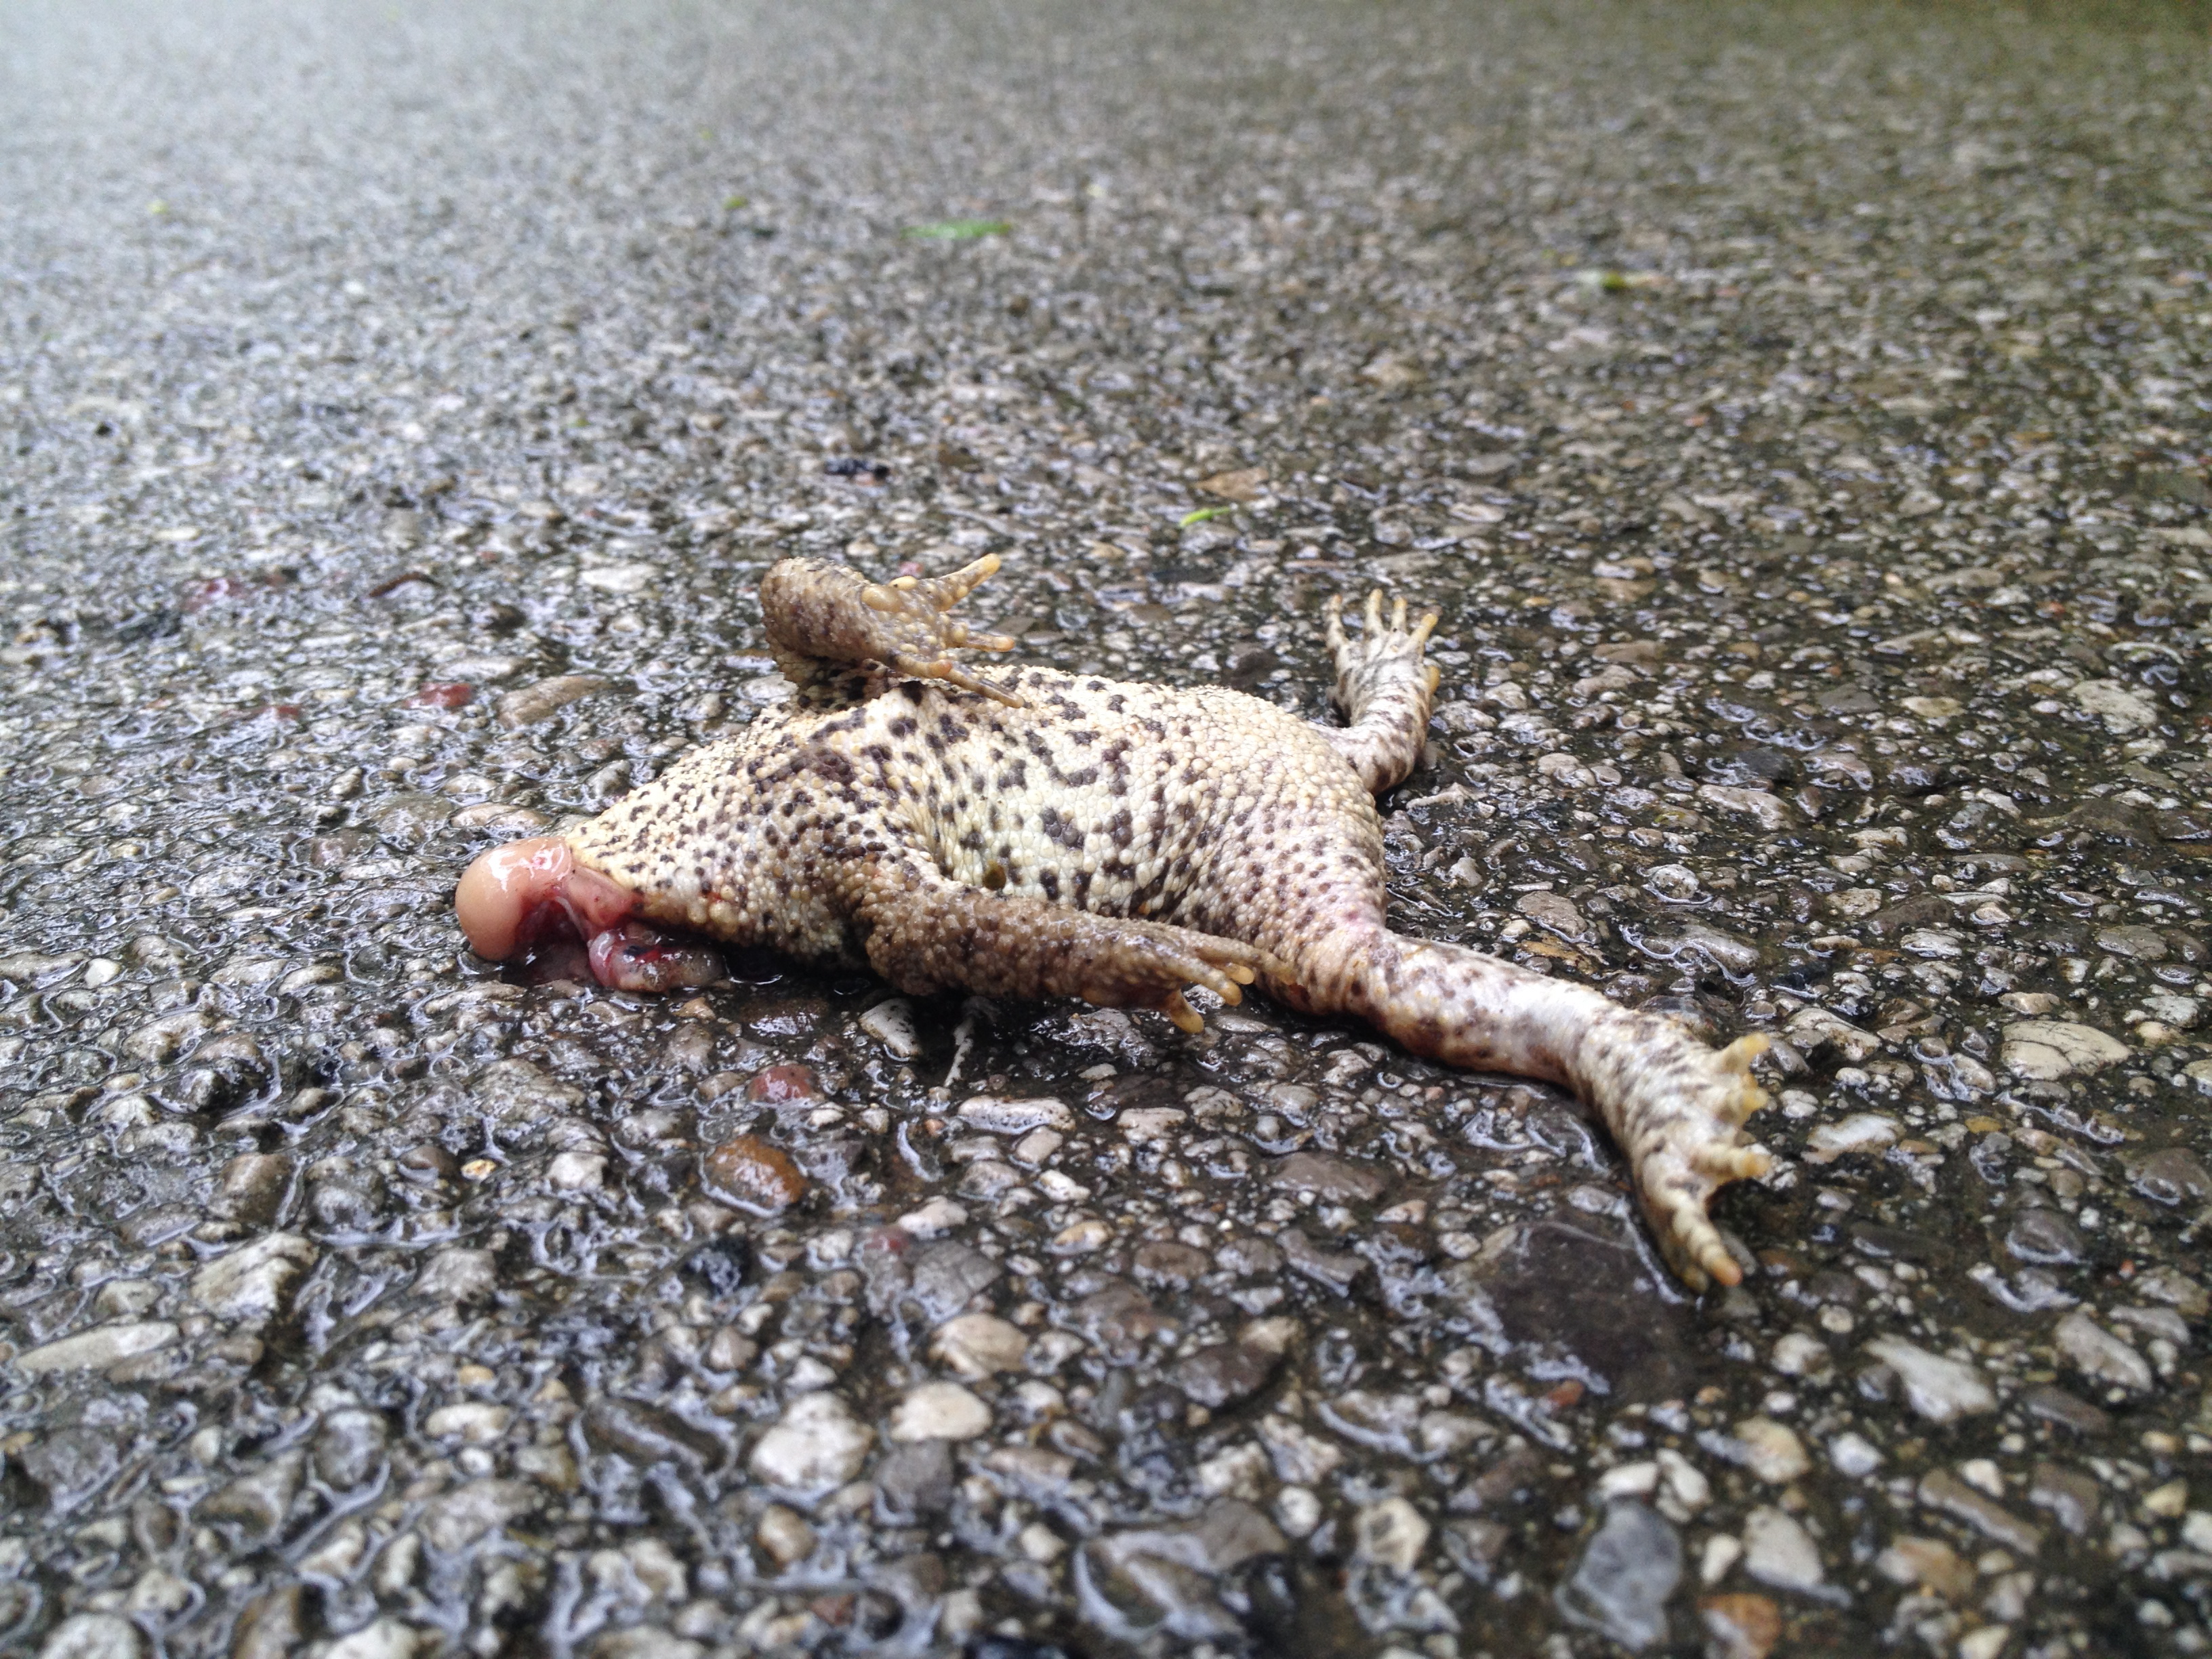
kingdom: Animalia
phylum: Chordata
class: Amphibia
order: Anura
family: Bufonidae
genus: Bufo
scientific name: Bufo bufo
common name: Common toad
